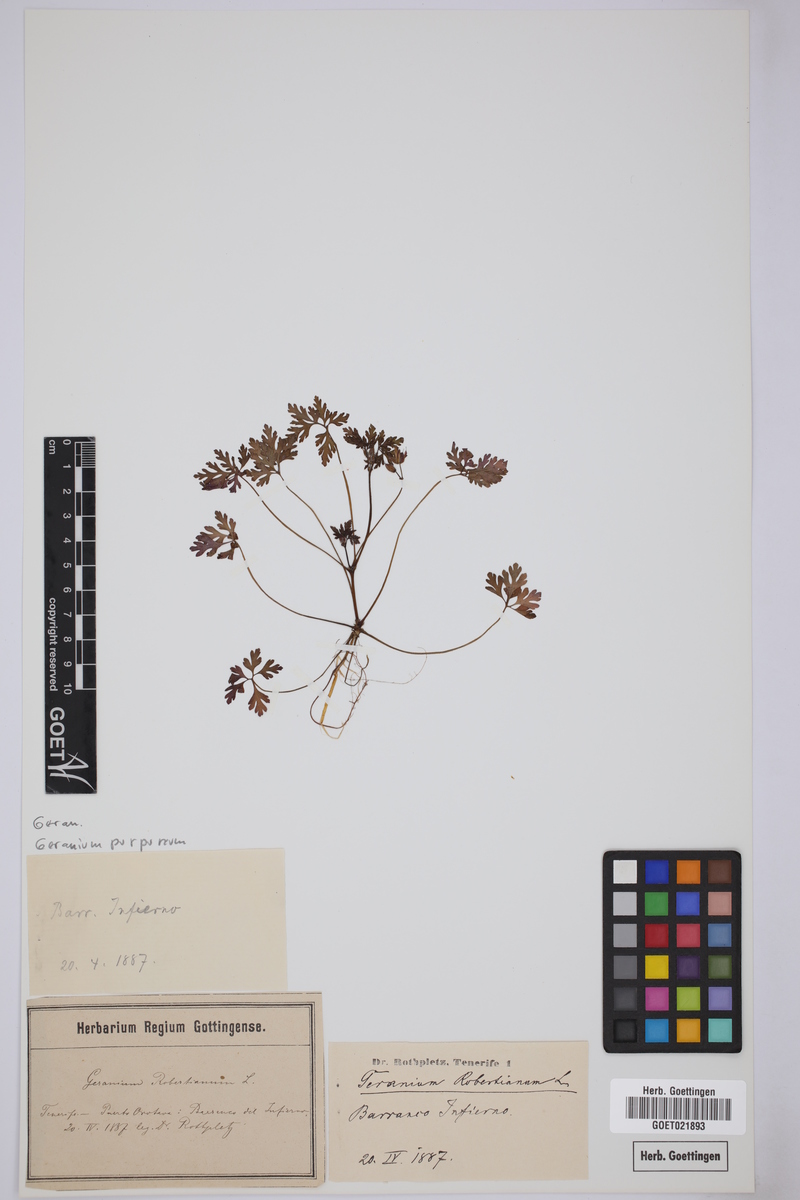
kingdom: Plantae
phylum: Tracheophyta
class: Magnoliopsida
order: Geraniales
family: Geraniaceae
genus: Geranium
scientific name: Geranium purpureum
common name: Little-robin
